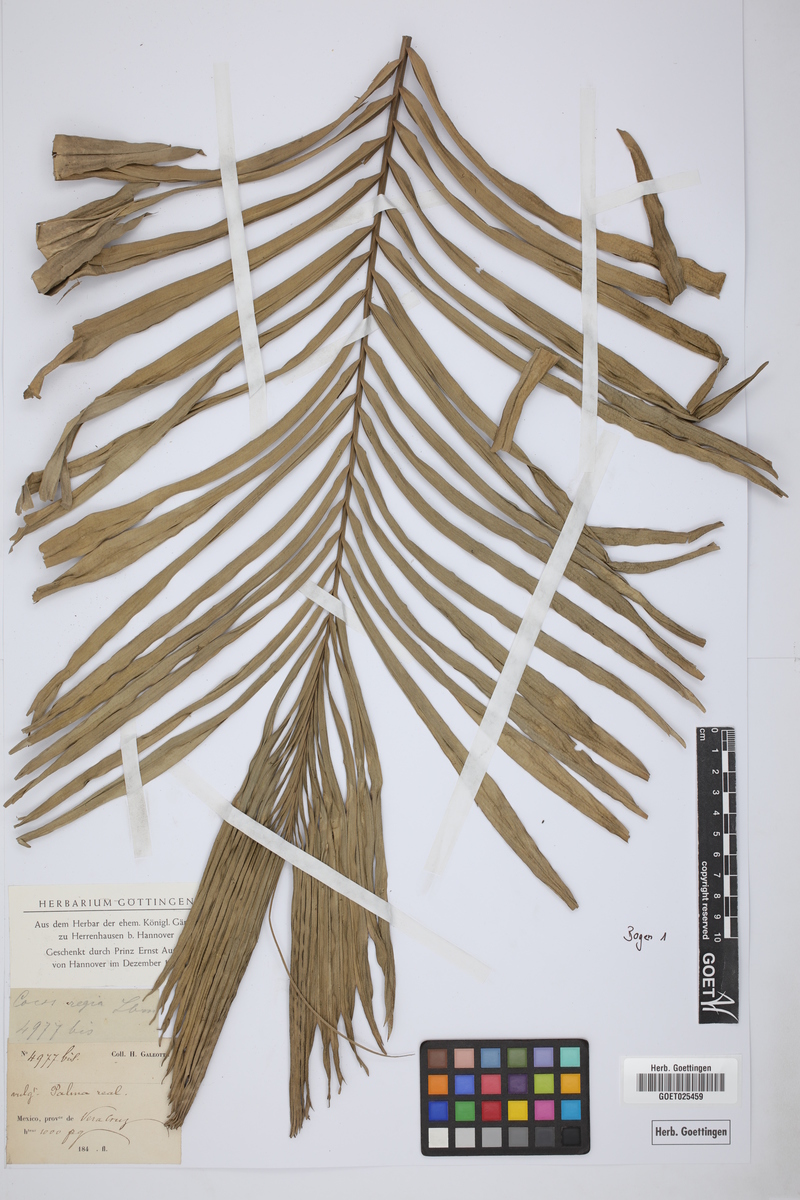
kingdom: Plantae
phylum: Tracheophyta
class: Liliopsida
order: Arecales
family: Arecaceae
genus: Attalea
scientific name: Attalea rostrata
